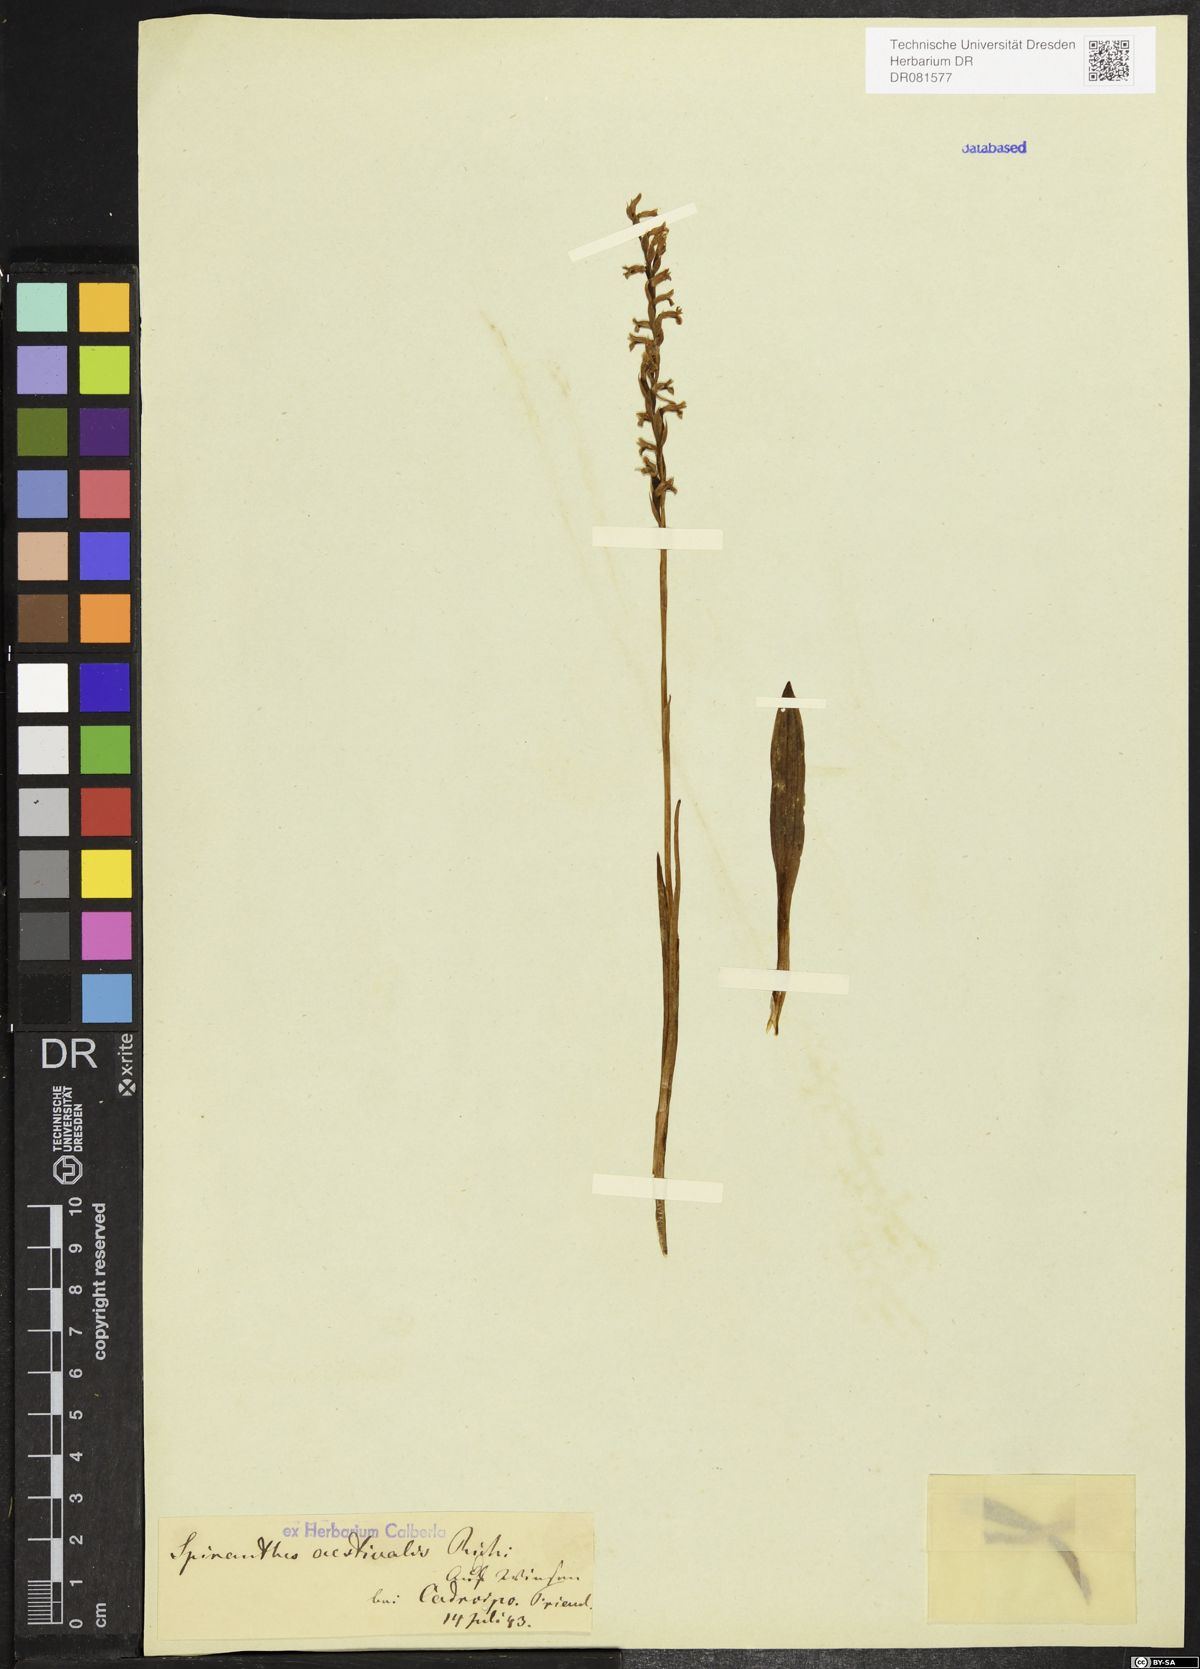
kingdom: Plantae
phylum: Tracheophyta
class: Liliopsida
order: Asparagales
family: Orchidaceae
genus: Spiranthes
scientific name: Spiranthes aestivalis
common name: Summer lady's-tresses
